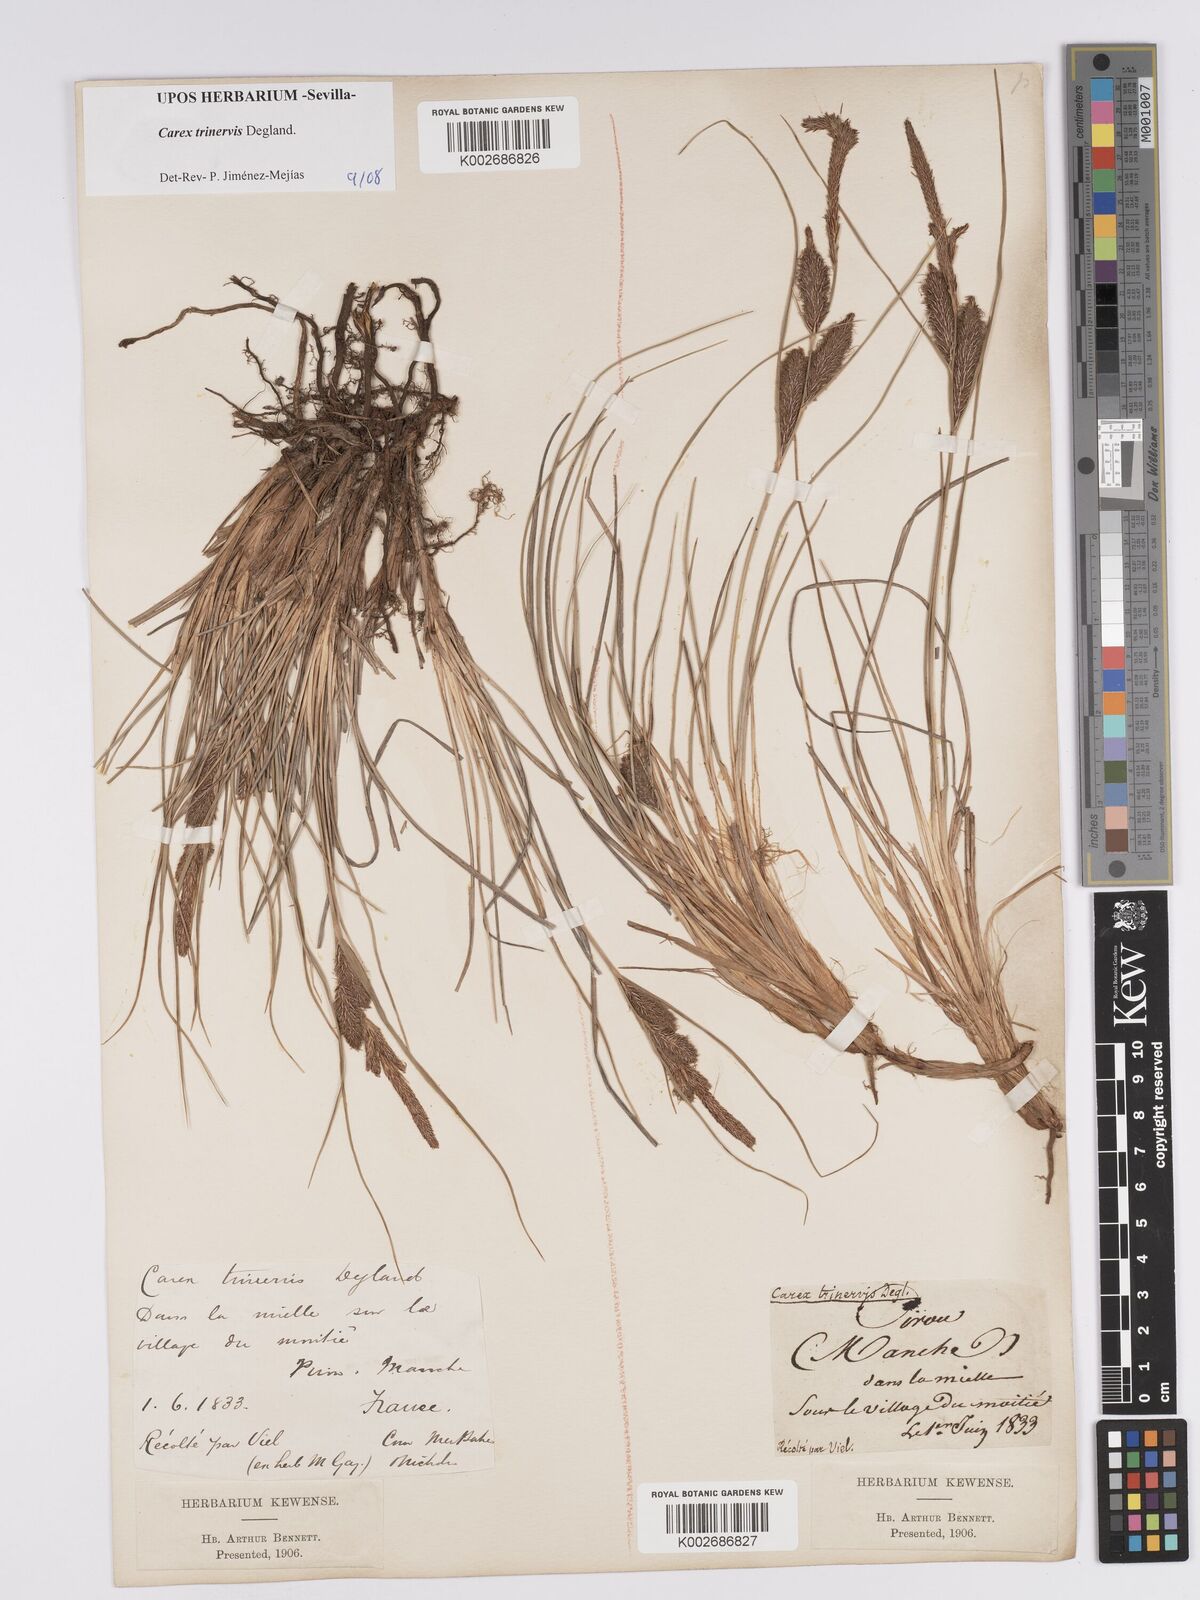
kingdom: Plantae
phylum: Tracheophyta
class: Liliopsida
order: Poales
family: Cyperaceae
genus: Carex
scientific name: Carex trinervis
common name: Three-nerved sedge
